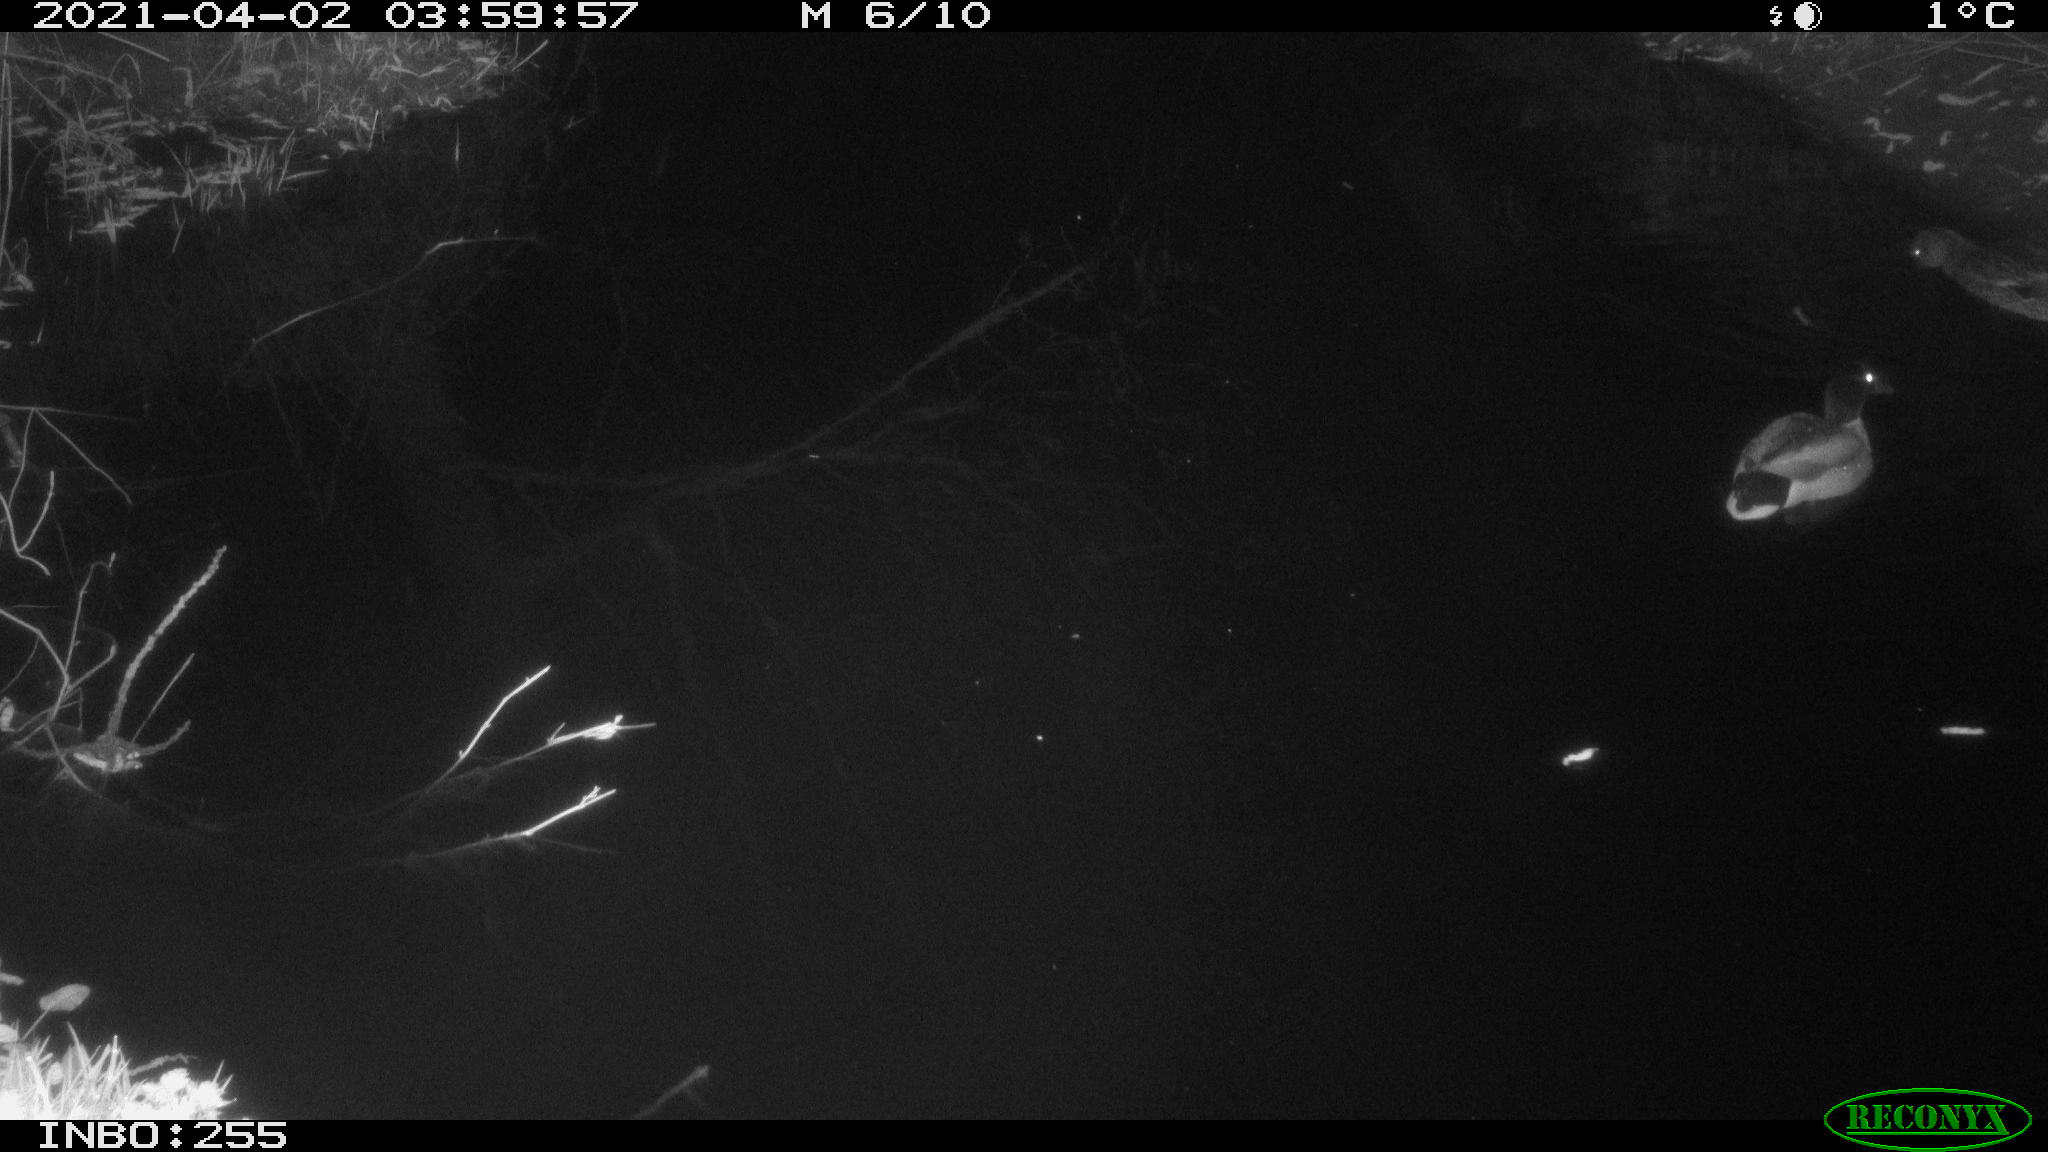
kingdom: Animalia
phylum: Chordata
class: Aves
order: Anseriformes
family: Anatidae
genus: Anas
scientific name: Anas platyrhynchos
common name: Mallard
